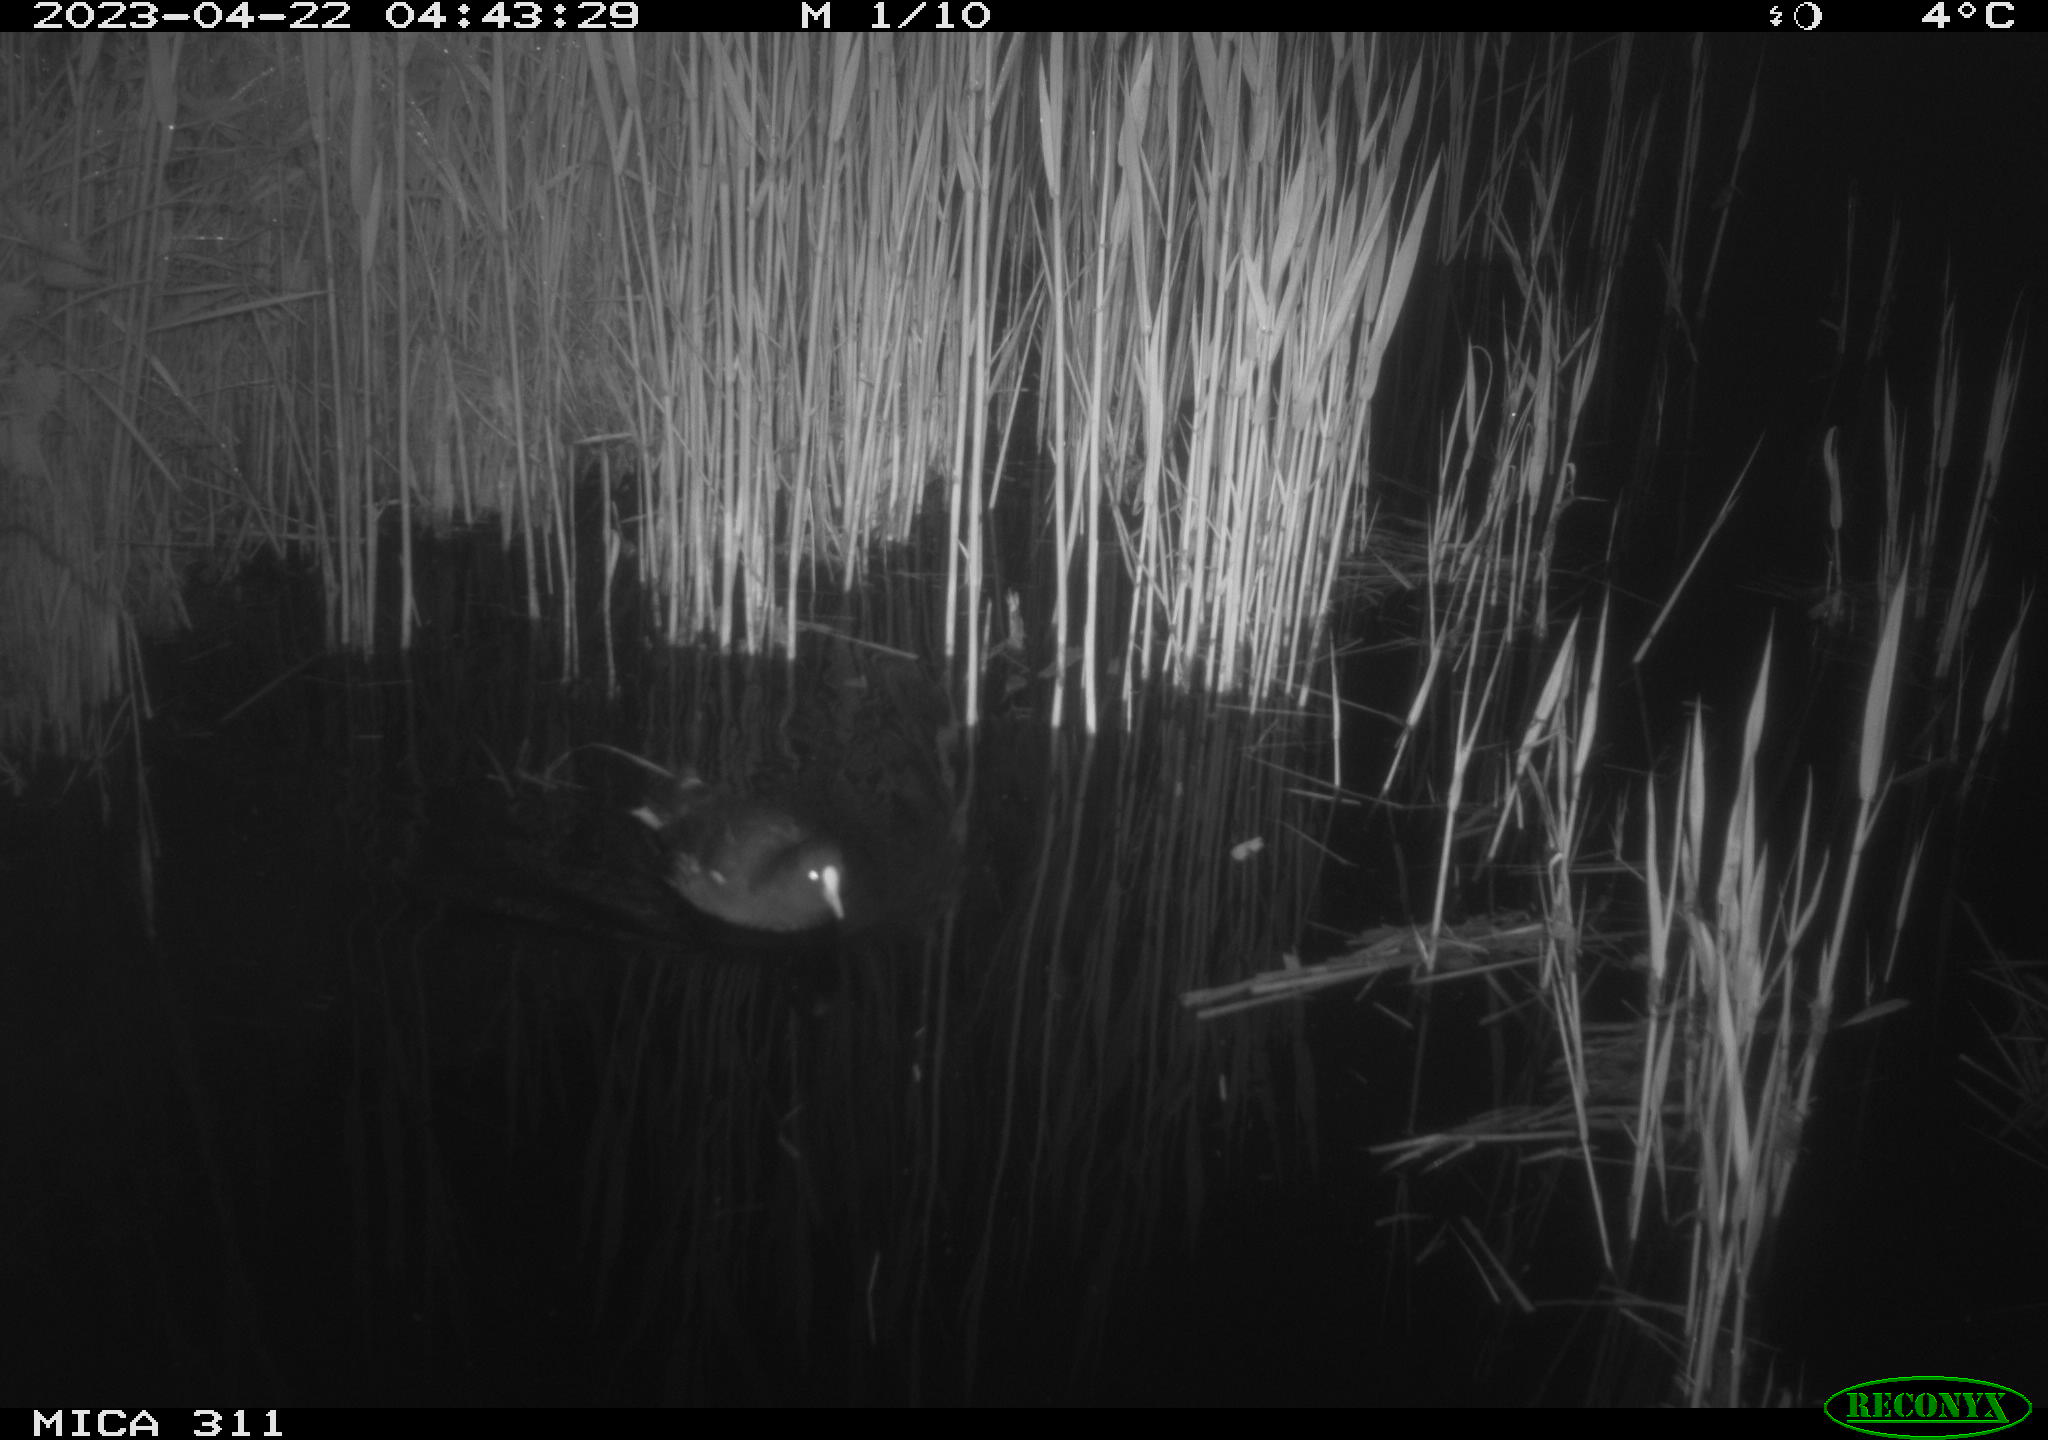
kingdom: Animalia
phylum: Chordata
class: Aves
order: Gruiformes
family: Rallidae
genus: Gallinula
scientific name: Gallinula chloropus
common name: Common moorhen
